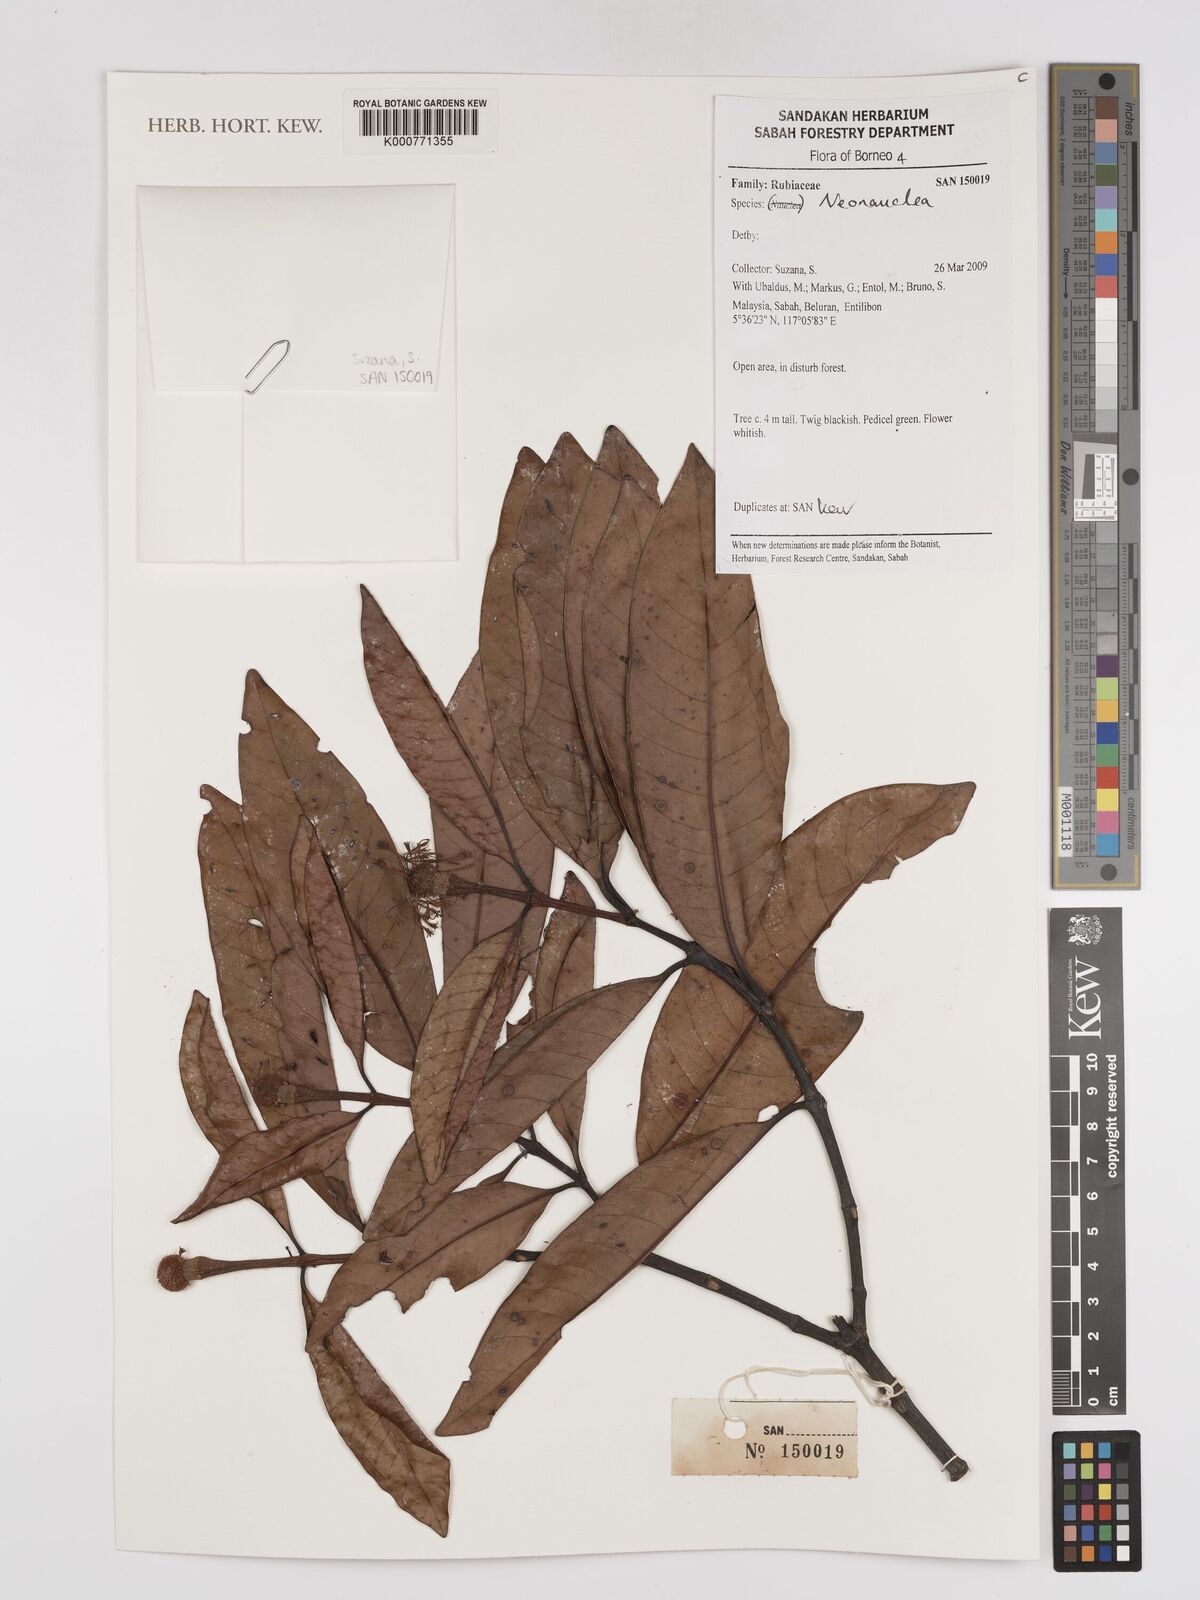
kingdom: Plantae
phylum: Tracheophyta
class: Magnoliopsida
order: Gentianales
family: Rubiaceae
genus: Neonauclea
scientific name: Neonauclea
